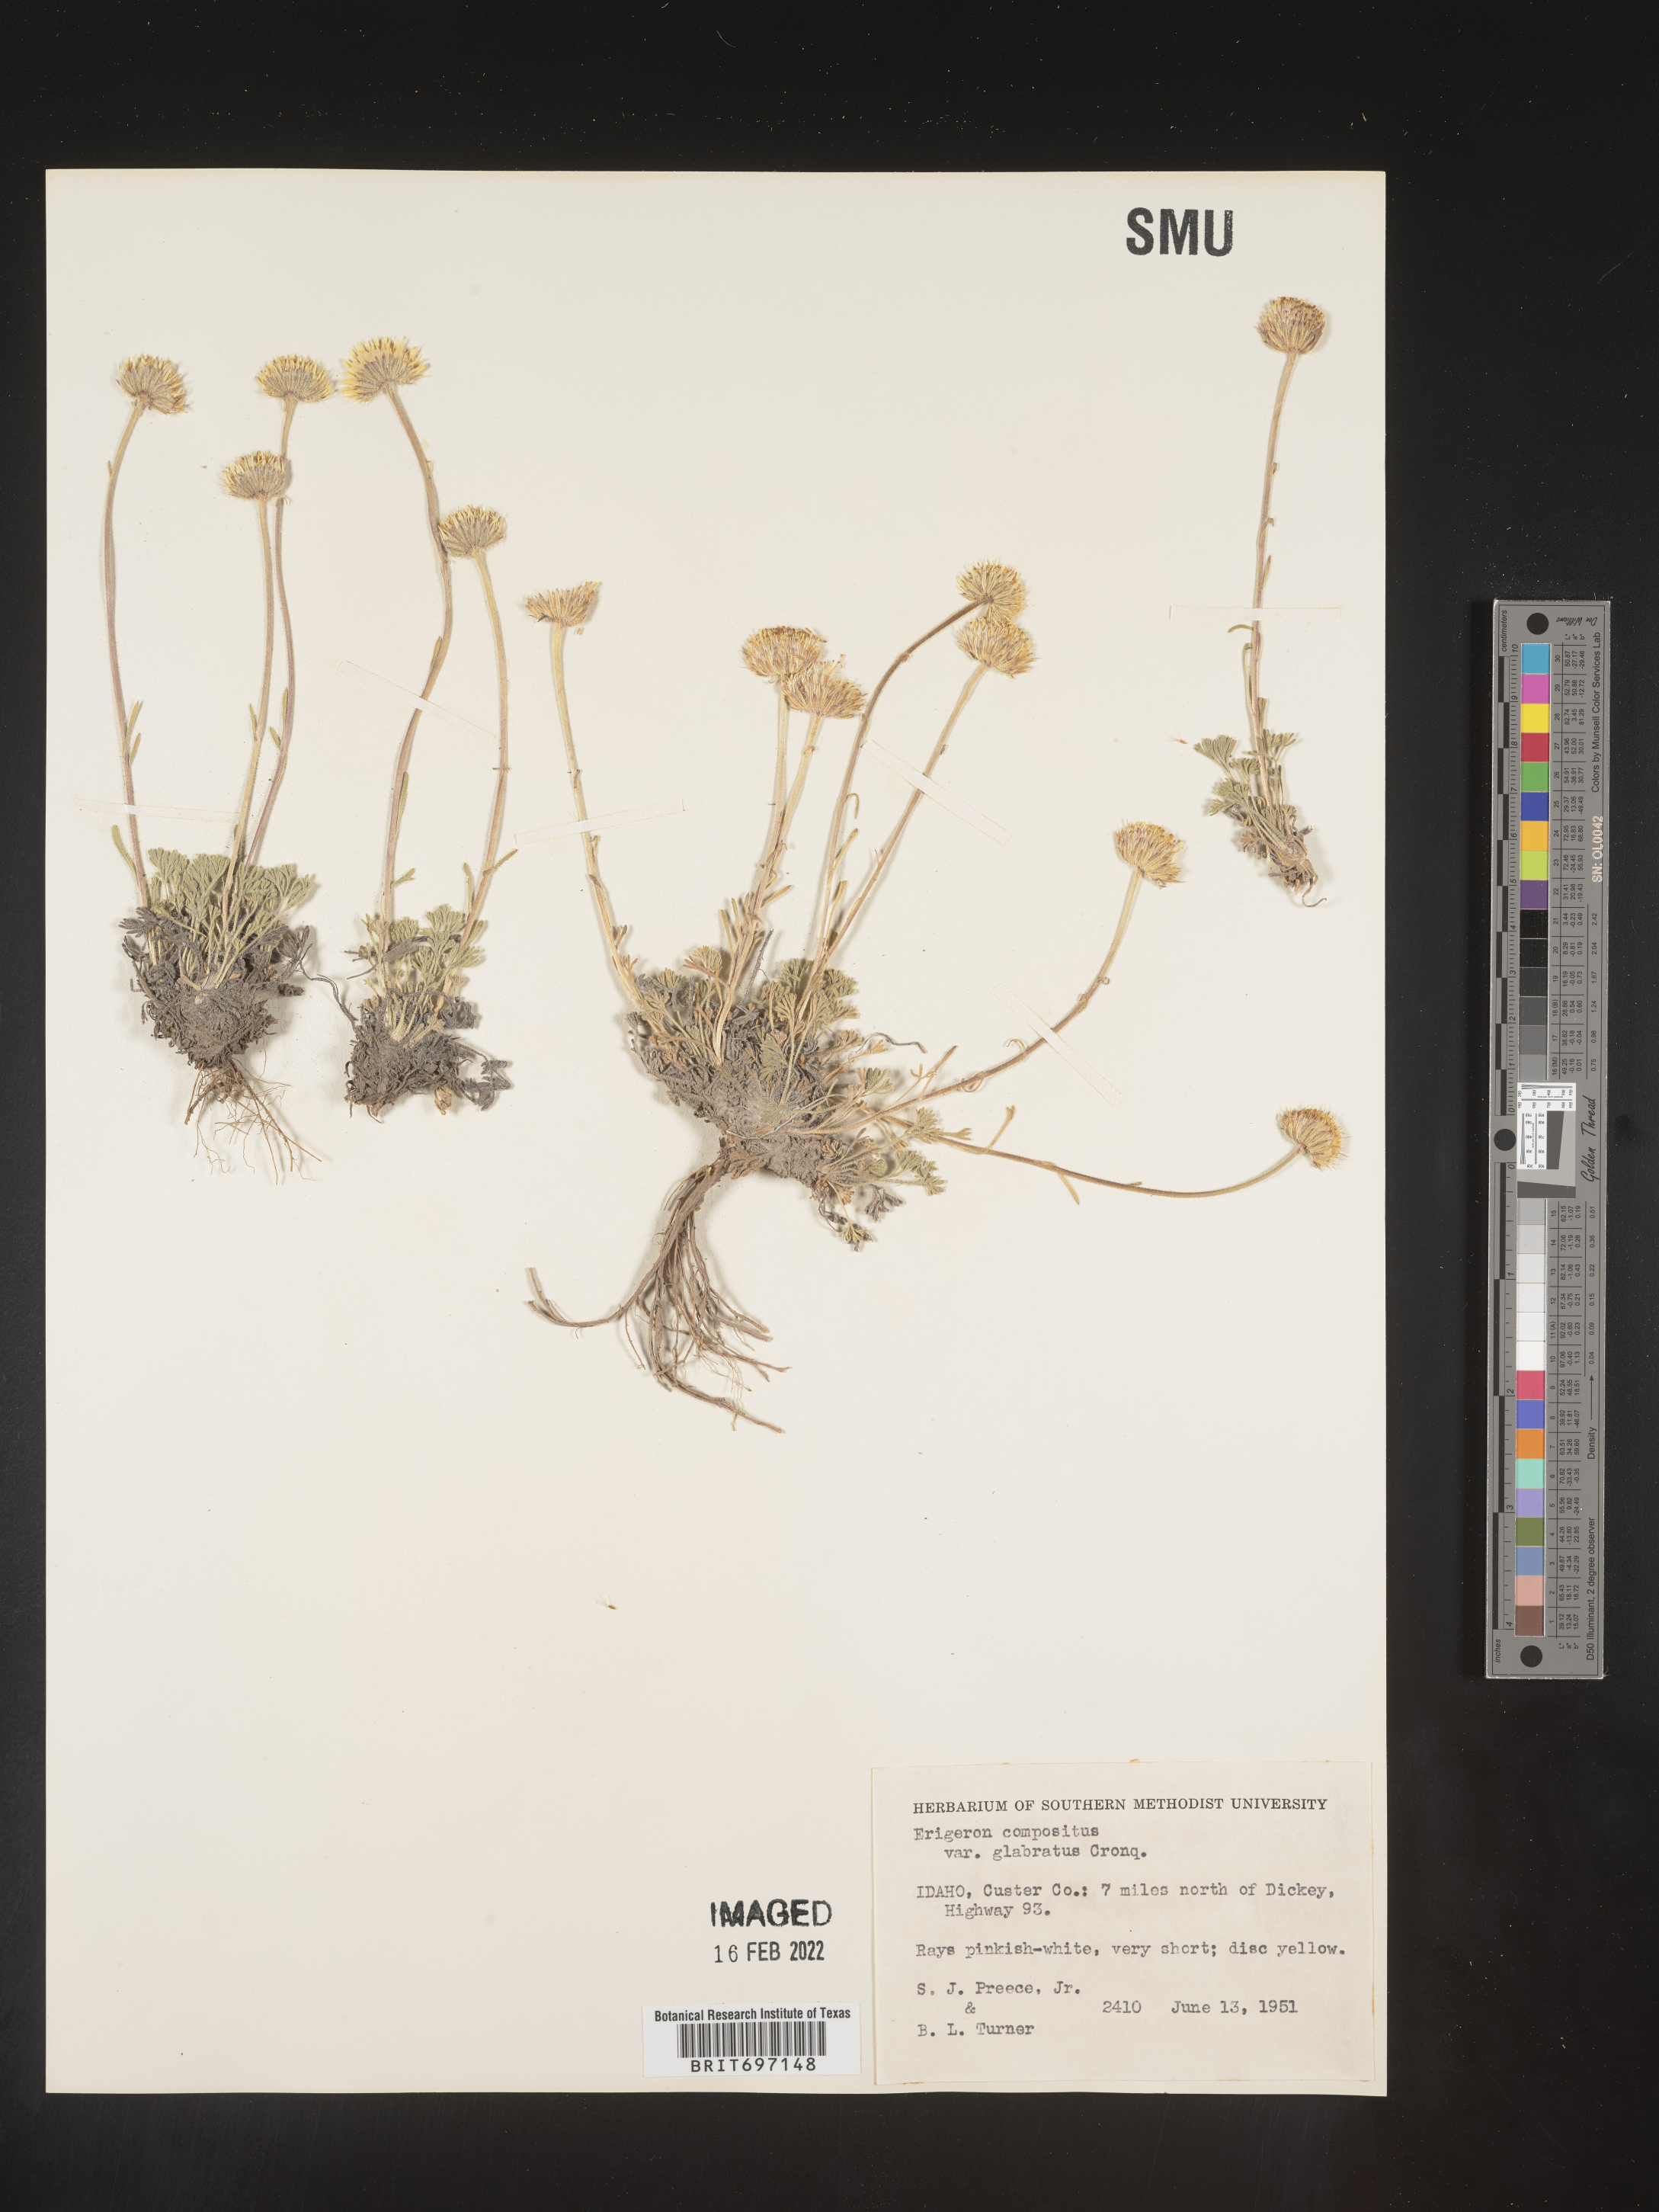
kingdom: Plantae
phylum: Tracheophyta
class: Magnoliopsida
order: Asterales
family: Asteraceae
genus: Erigeron
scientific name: Erigeron compositus
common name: Dwarf mountain fleabane
